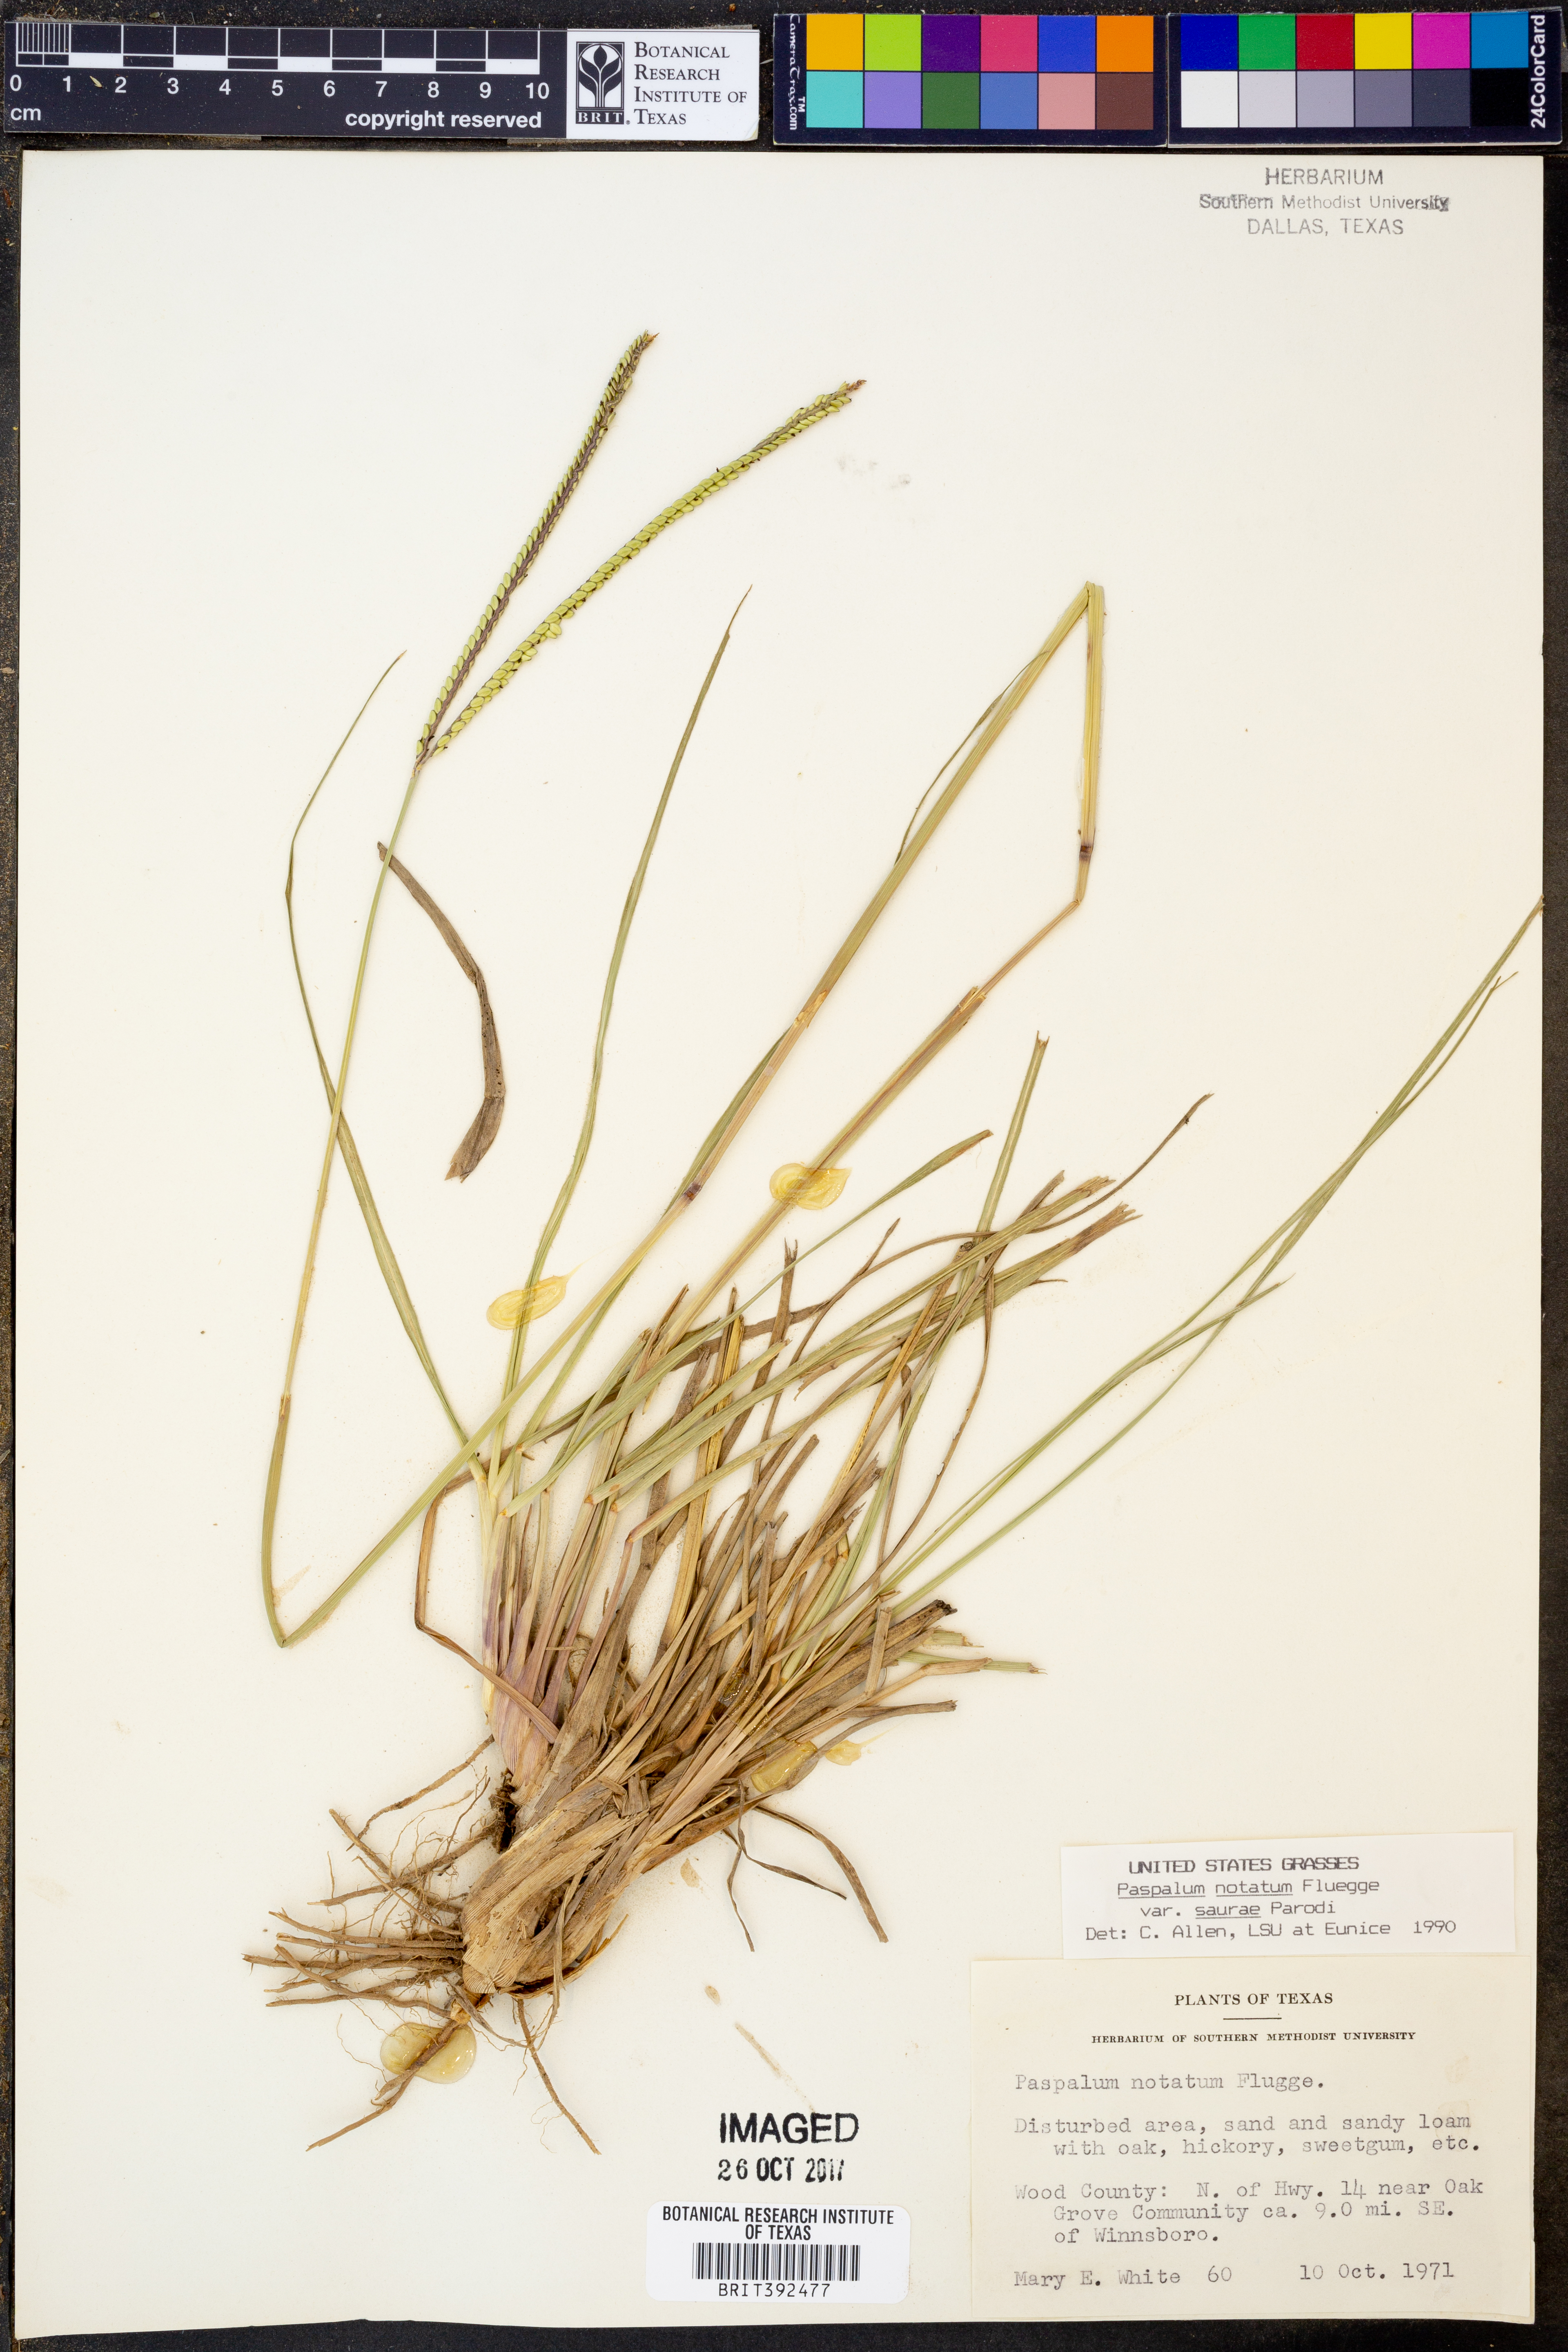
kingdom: Plantae
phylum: Tracheophyta
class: Liliopsida
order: Poales
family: Poaceae
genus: Paspalum
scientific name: Paspalum saurae
